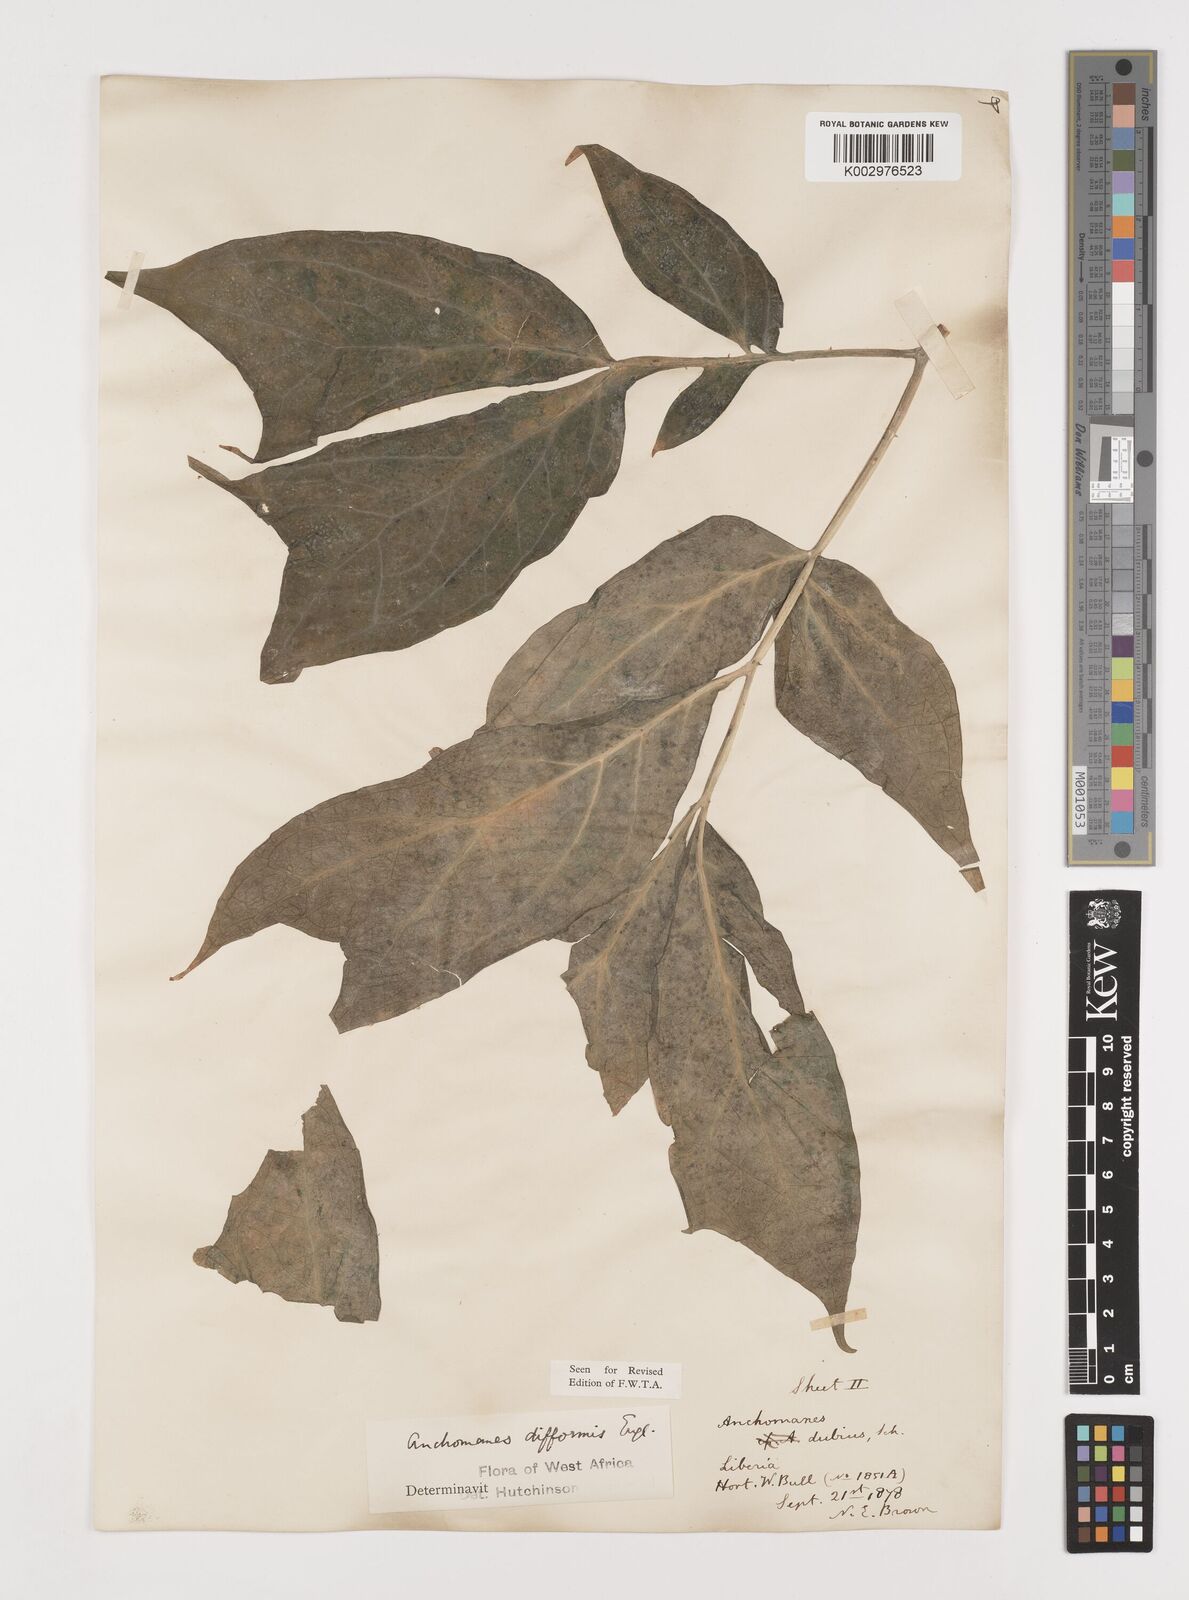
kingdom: Plantae
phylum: Tracheophyta
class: Liliopsida
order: Alismatales
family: Araceae
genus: Anchomanes
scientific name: Anchomanes difformis
